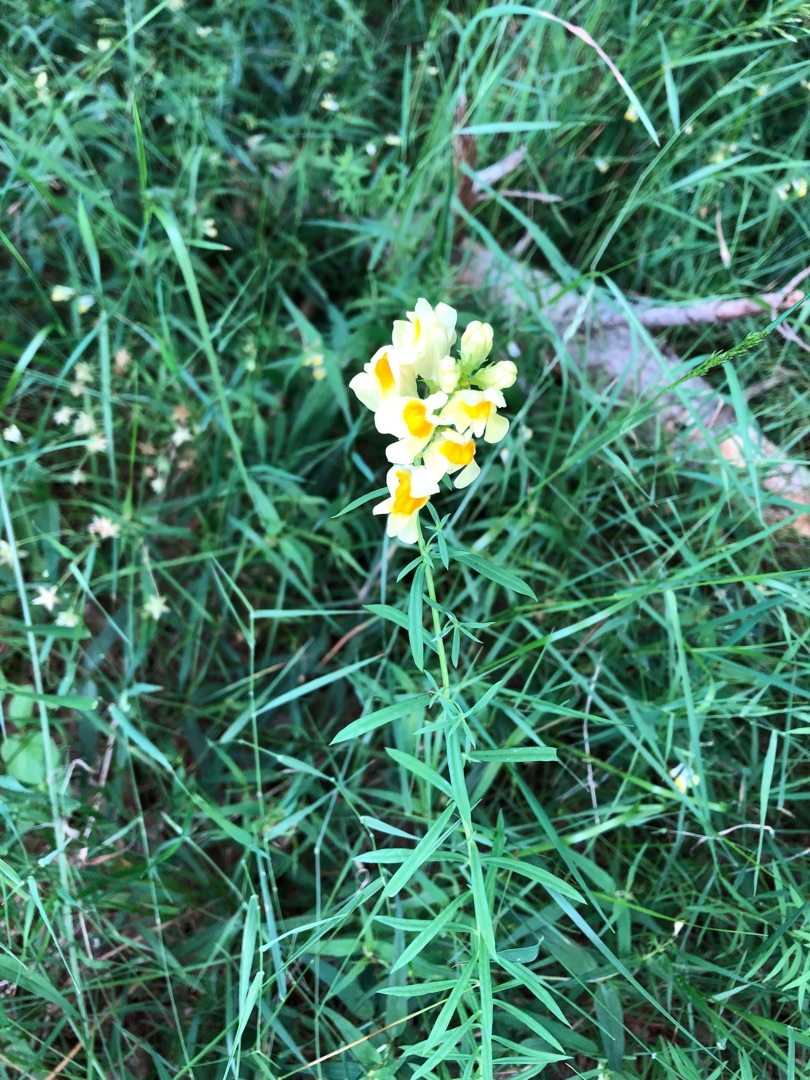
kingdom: Plantae
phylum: Tracheophyta
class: Magnoliopsida
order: Lamiales
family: Plantaginaceae
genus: Linaria
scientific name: Linaria vulgaris
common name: Almindelig torskemund
